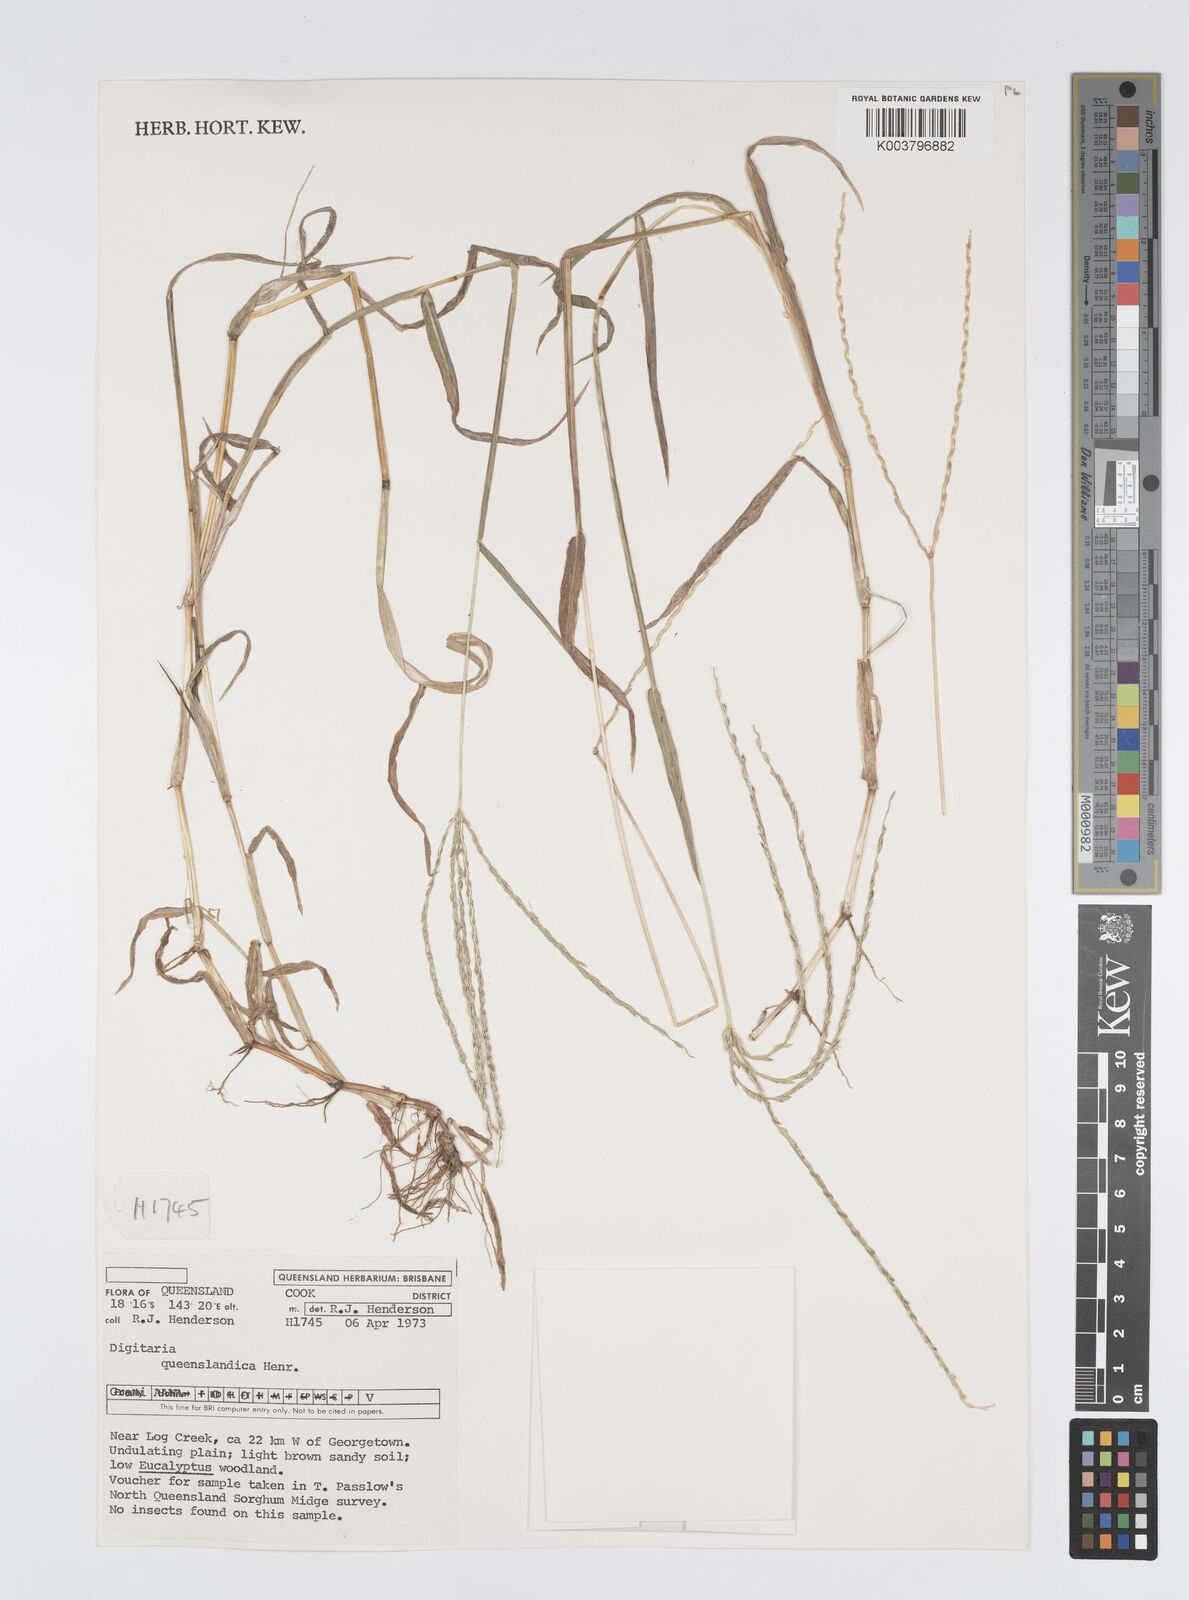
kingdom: Plantae
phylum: Tracheophyta
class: Liliopsida
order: Poales
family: Poaceae
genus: Digitaria
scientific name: Digitaria bicornis
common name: Asian crabgrass
